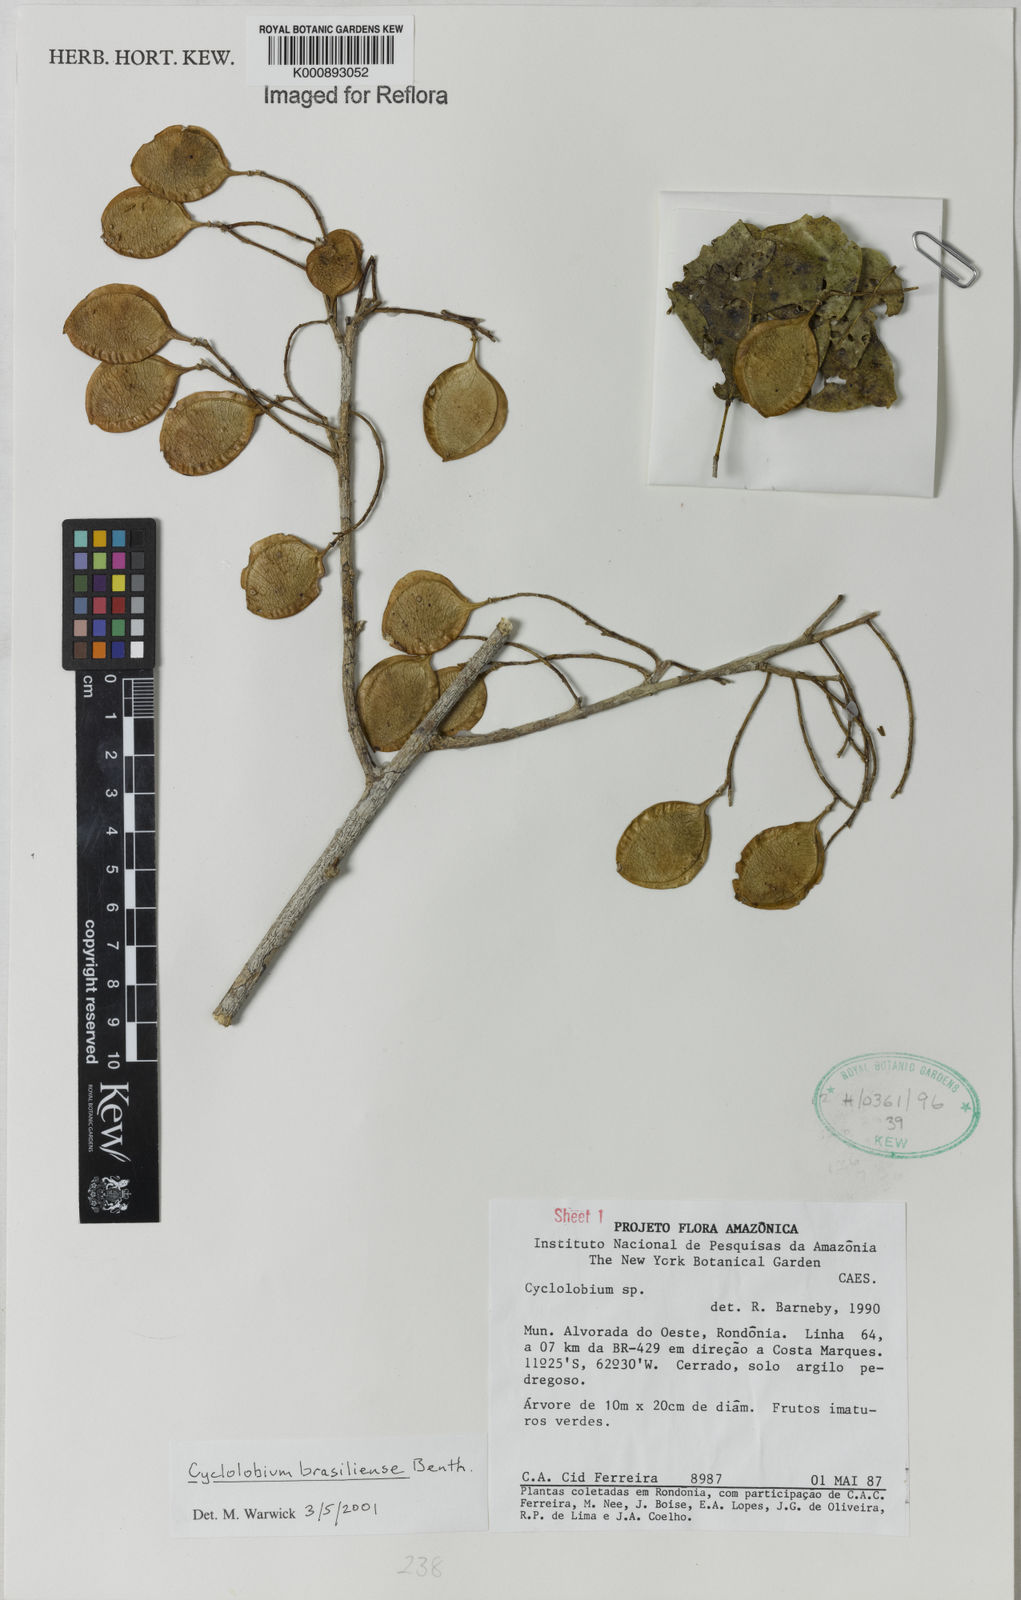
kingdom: Plantae
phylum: Tracheophyta
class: Magnoliopsida
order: Fabales
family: Fabaceae
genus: Cyclolobium
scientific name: Cyclolobium brasiliense
